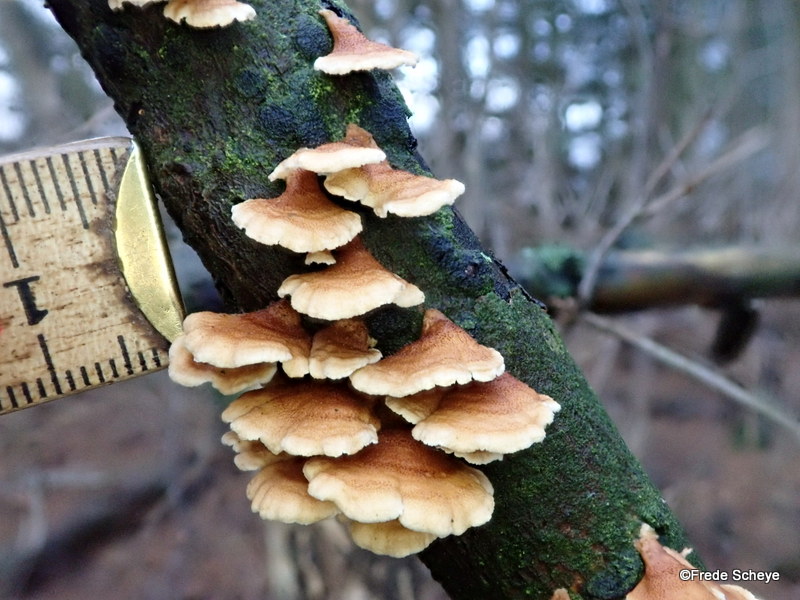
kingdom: Fungi
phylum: Basidiomycota
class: Agaricomycetes
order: Amylocorticiales
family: Amylocorticiaceae
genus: Plicaturopsis
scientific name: Plicaturopsis crispa
